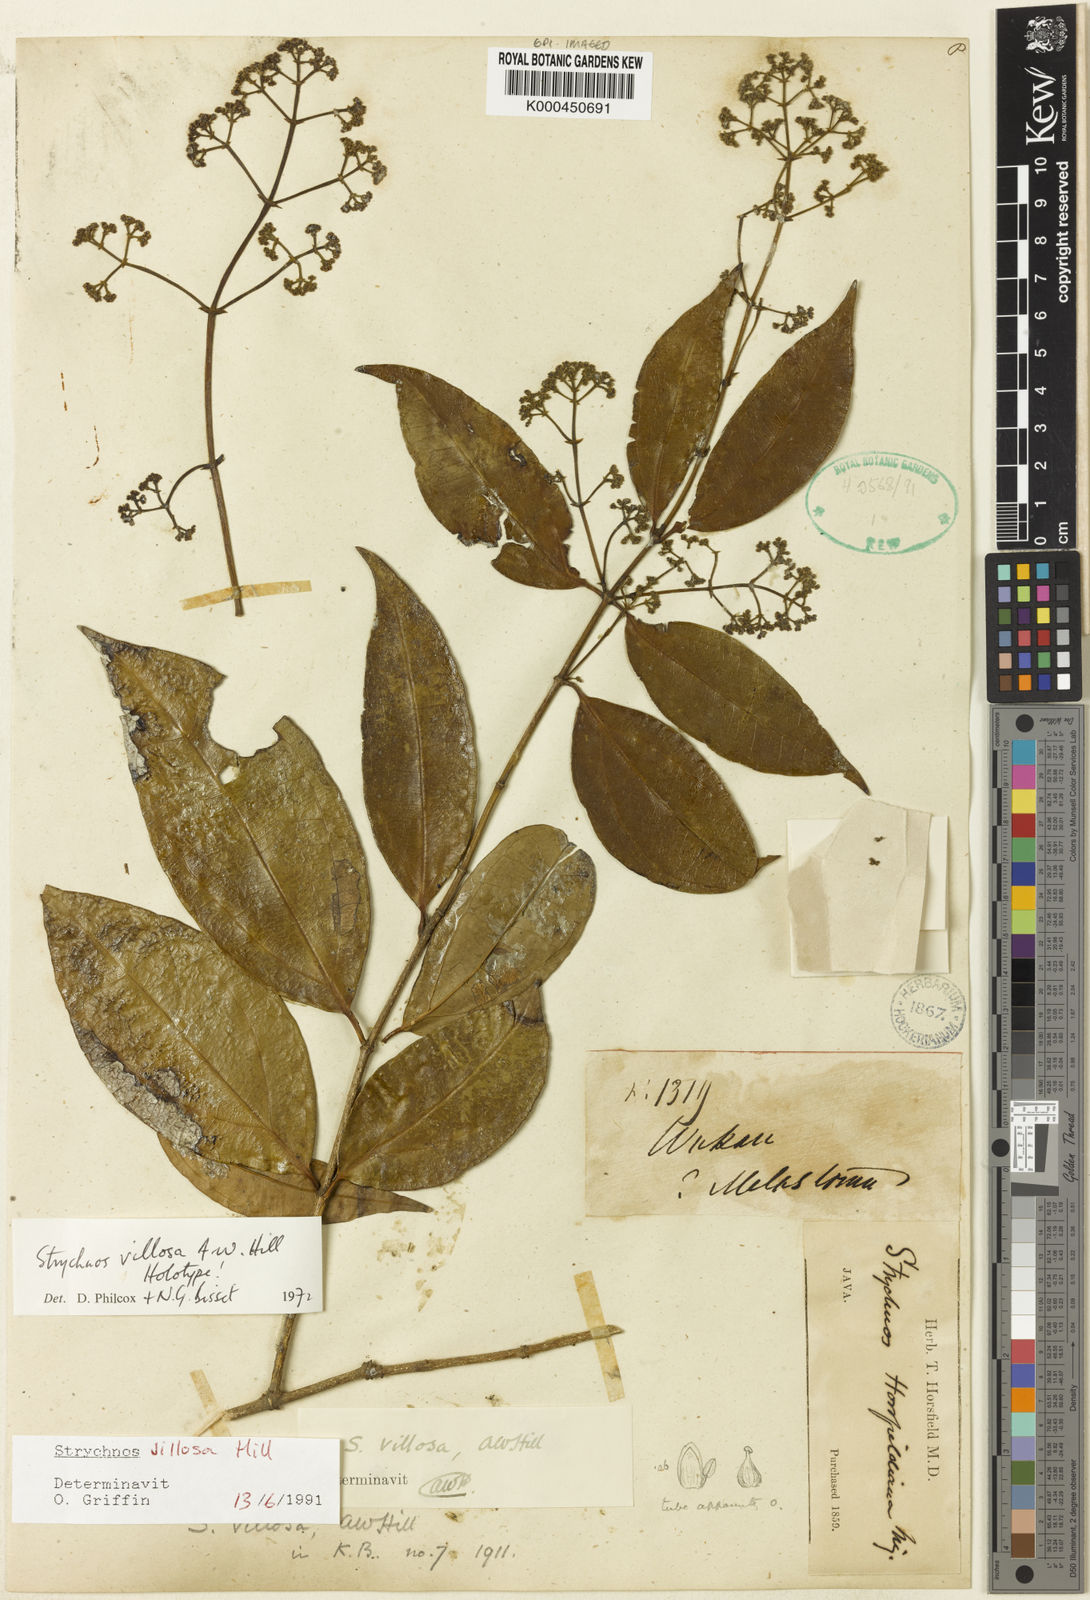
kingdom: Plantae
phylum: Tracheophyta
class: Magnoliopsida
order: Gentianales
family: Loganiaceae
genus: Strychnos
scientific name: Strychnos villosa
